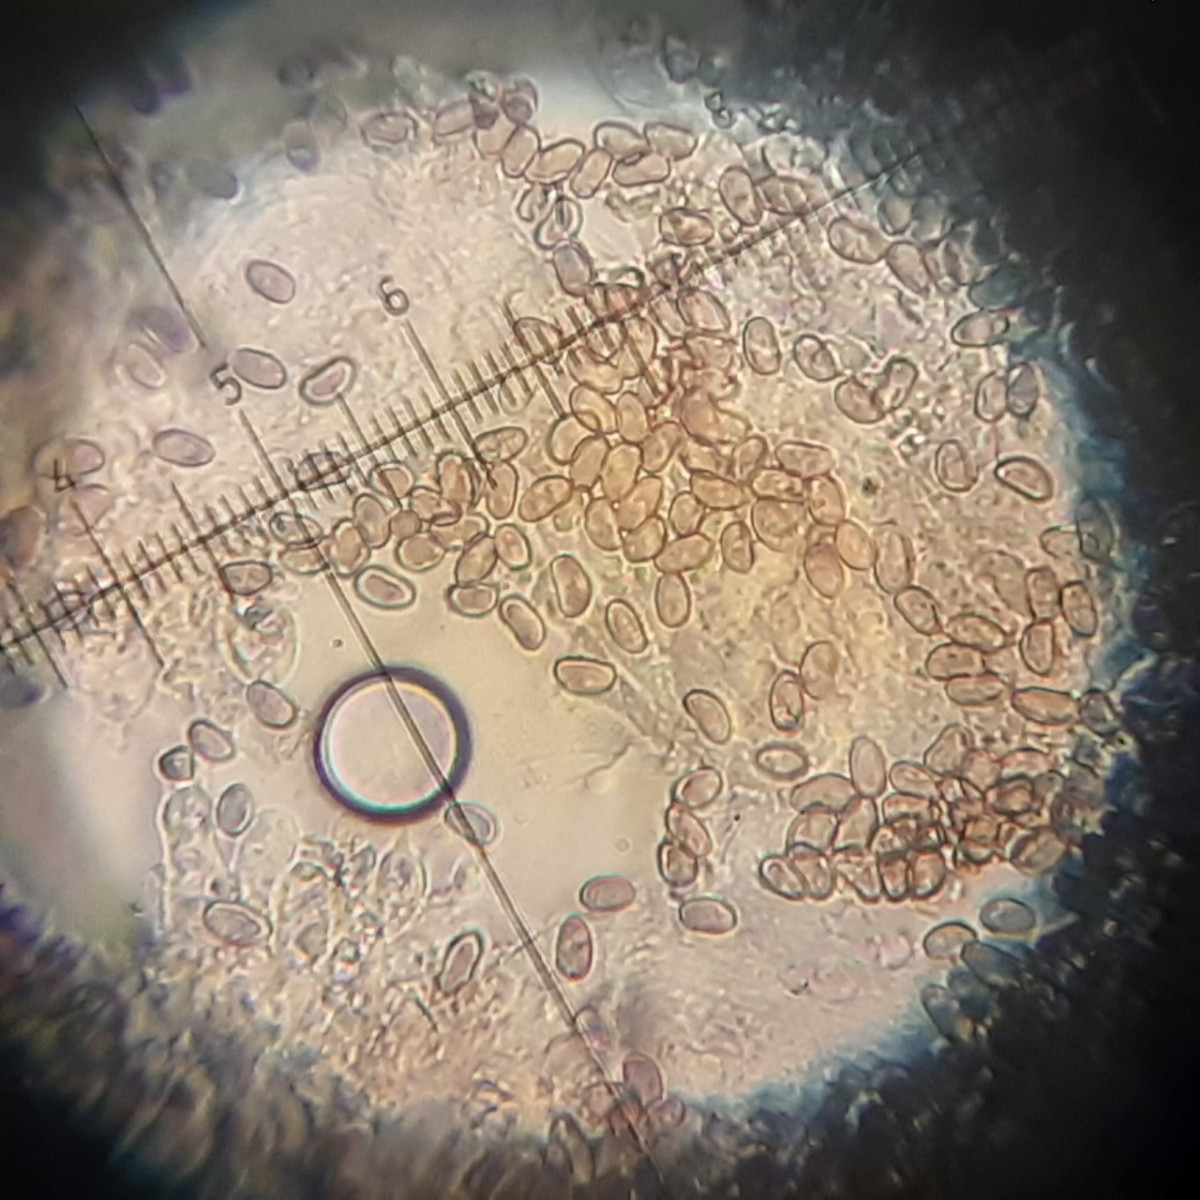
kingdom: Fungi
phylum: Basidiomycota
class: Agaricomycetes
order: Agaricales
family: Inocybaceae
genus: Inosperma
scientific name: Inosperma
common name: Trævlhat
